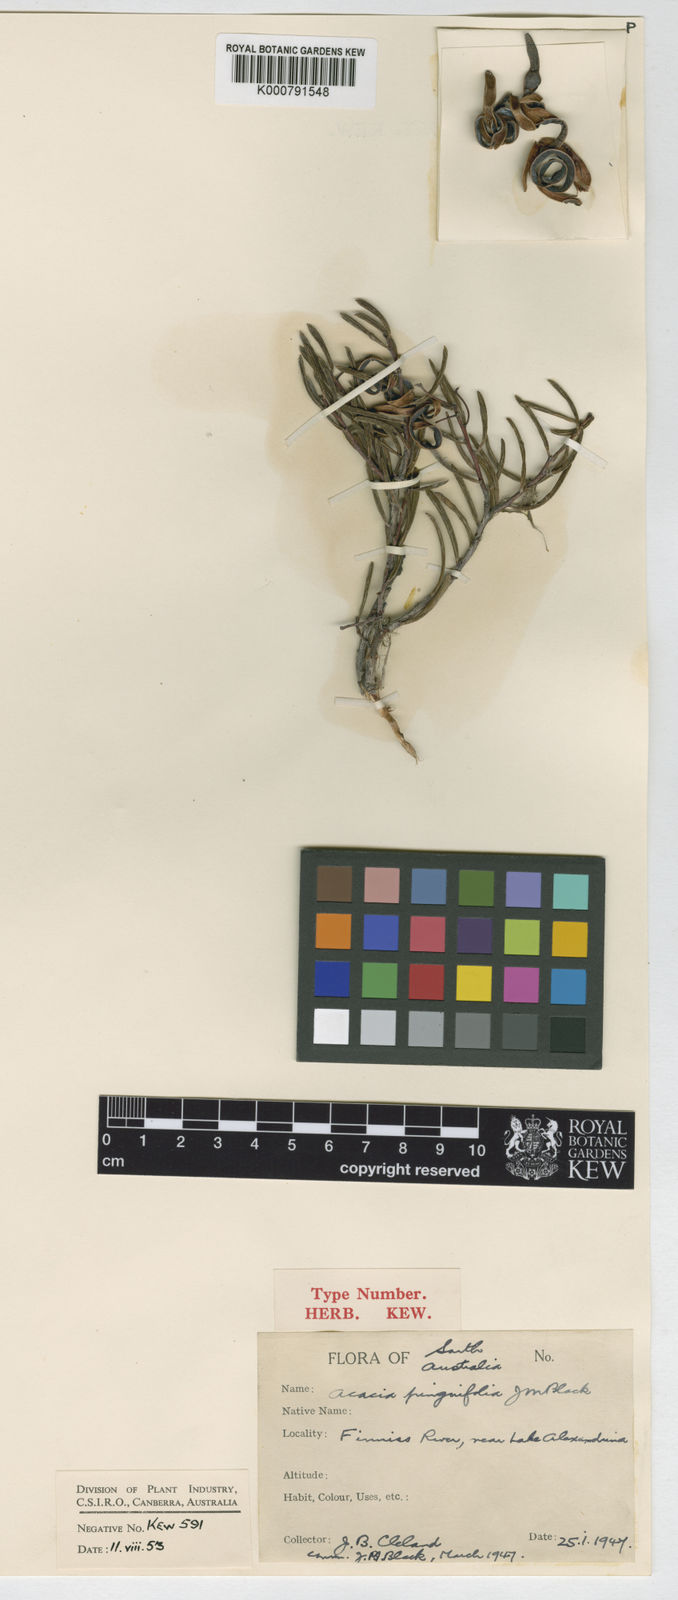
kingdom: Plantae
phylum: Tracheophyta
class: Magnoliopsida
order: Fabales
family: Fabaceae
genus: Acacia
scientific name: Acacia pinguifolia
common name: Fat-leaf wattle
